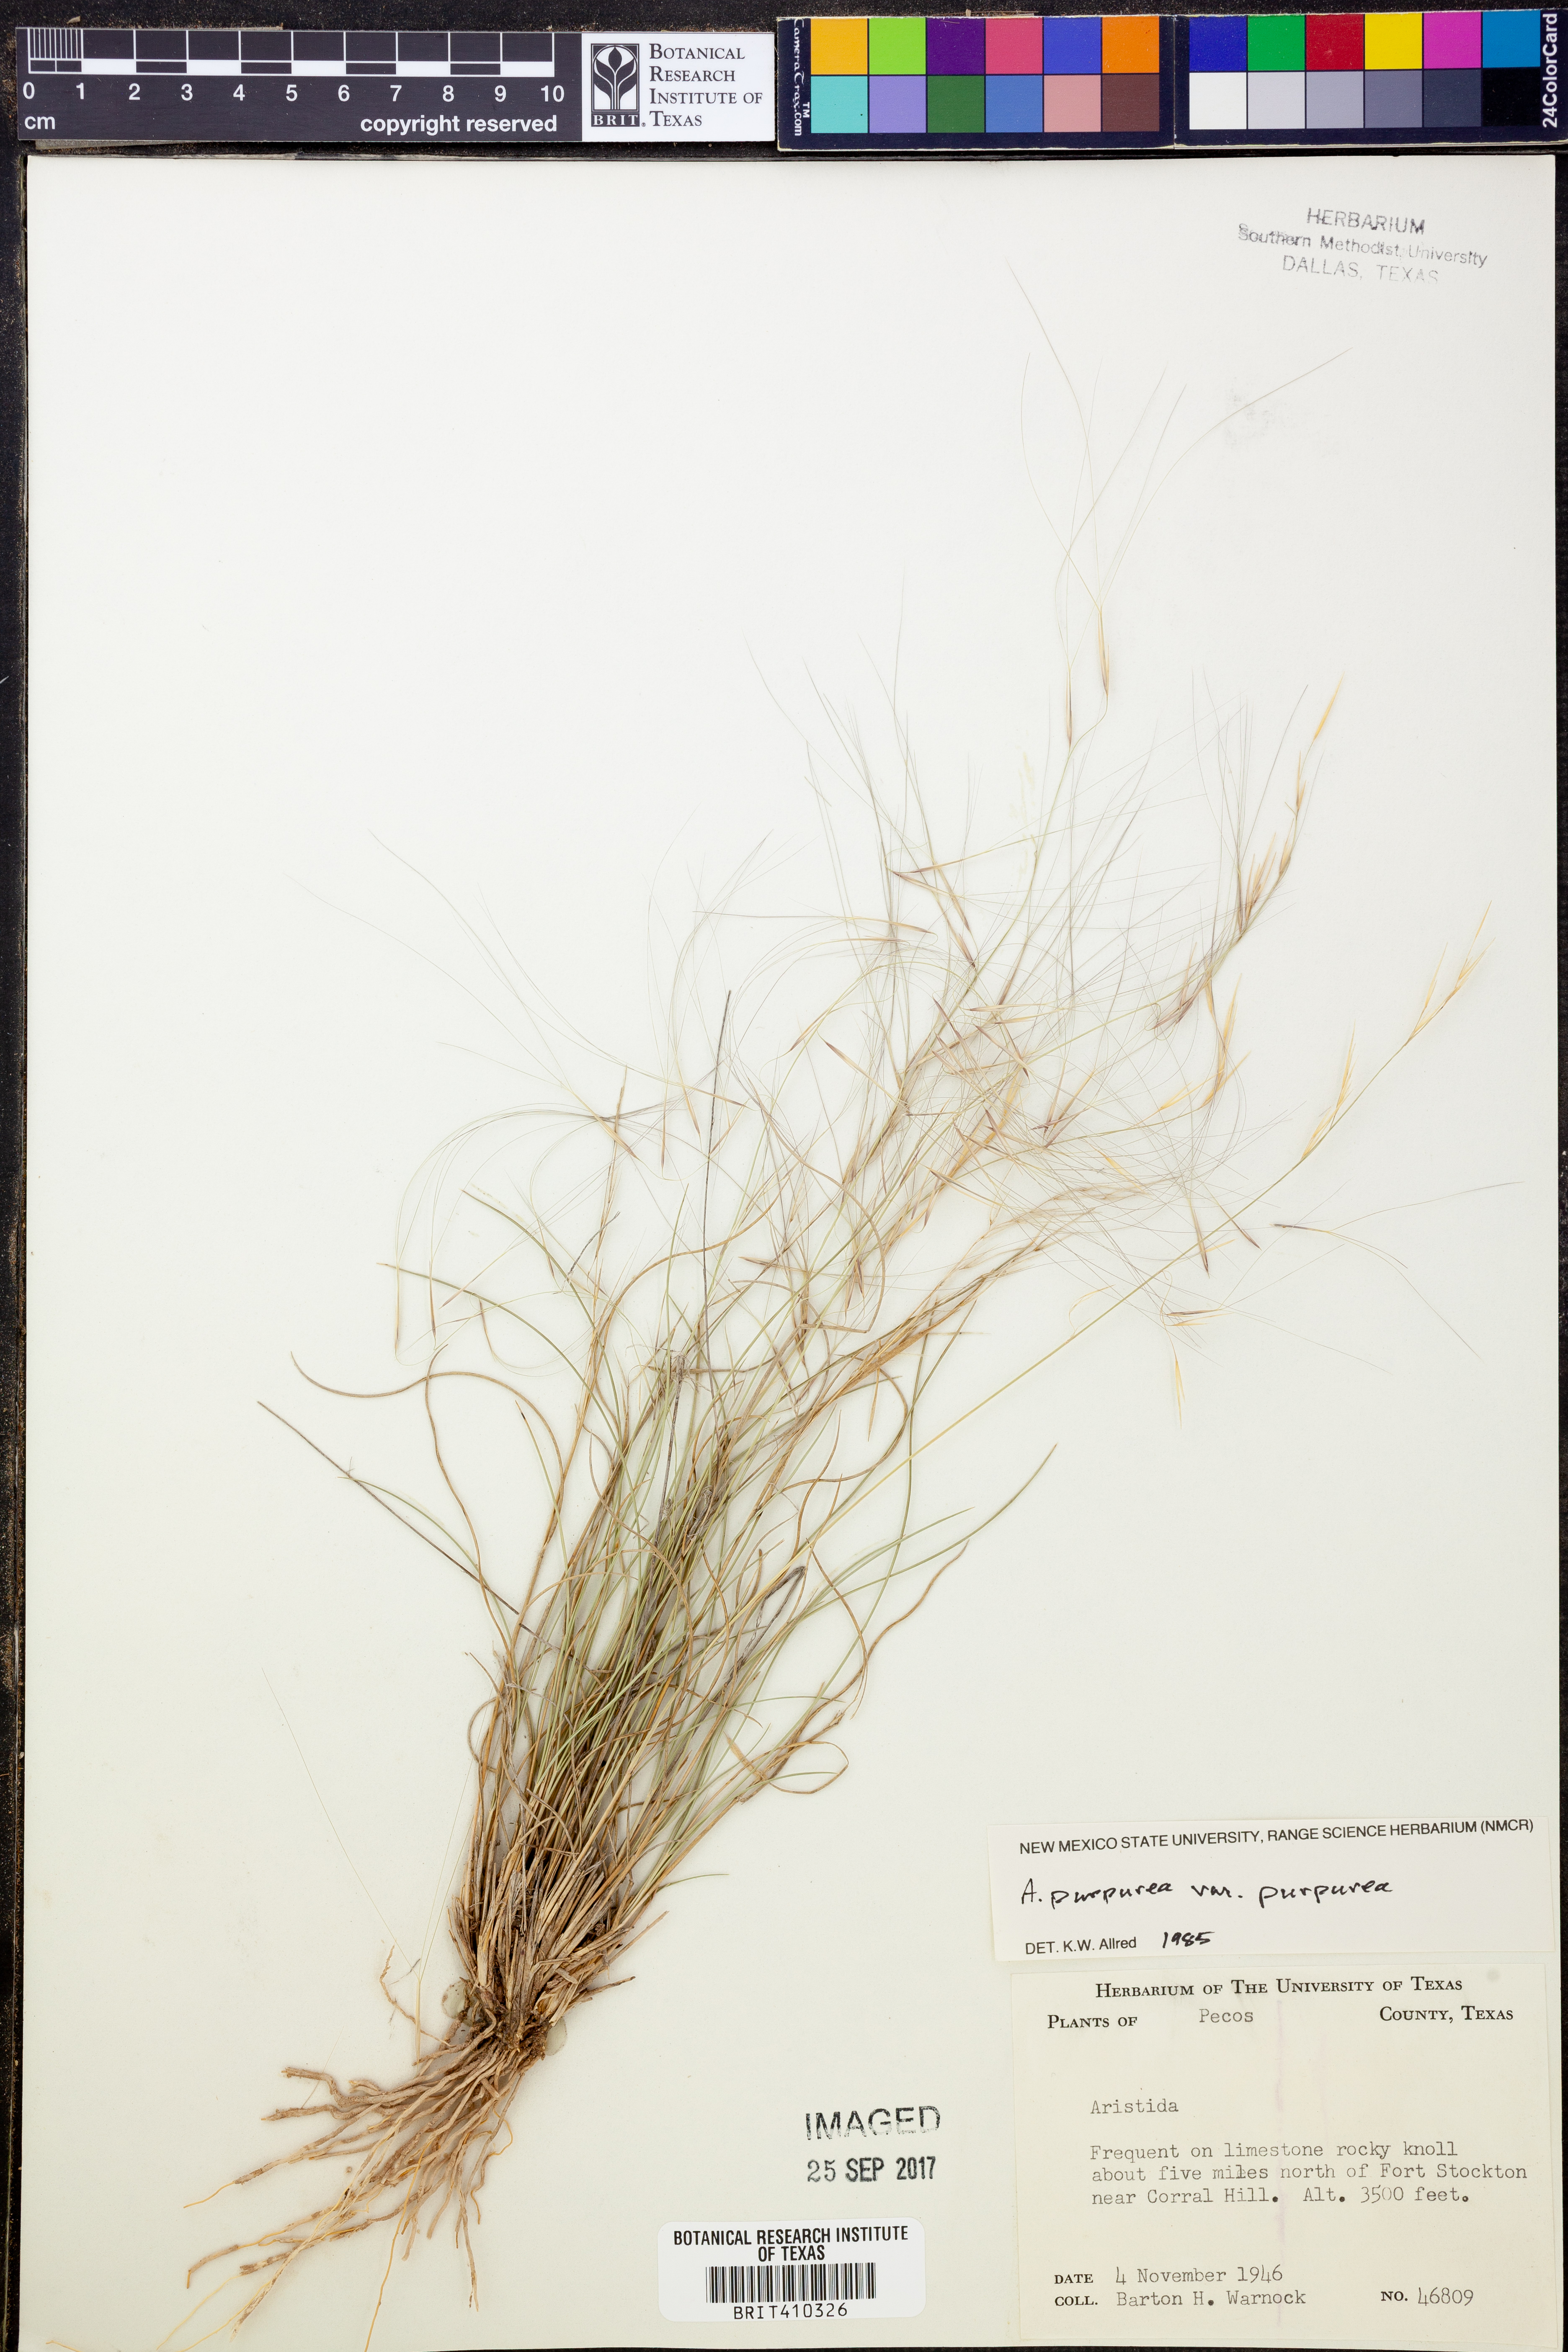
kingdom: Plantae
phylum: Tracheophyta
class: Liliopsida
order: Poales
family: Poaceae
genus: Aristida
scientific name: Aristida purpurea
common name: Purple threeawn
